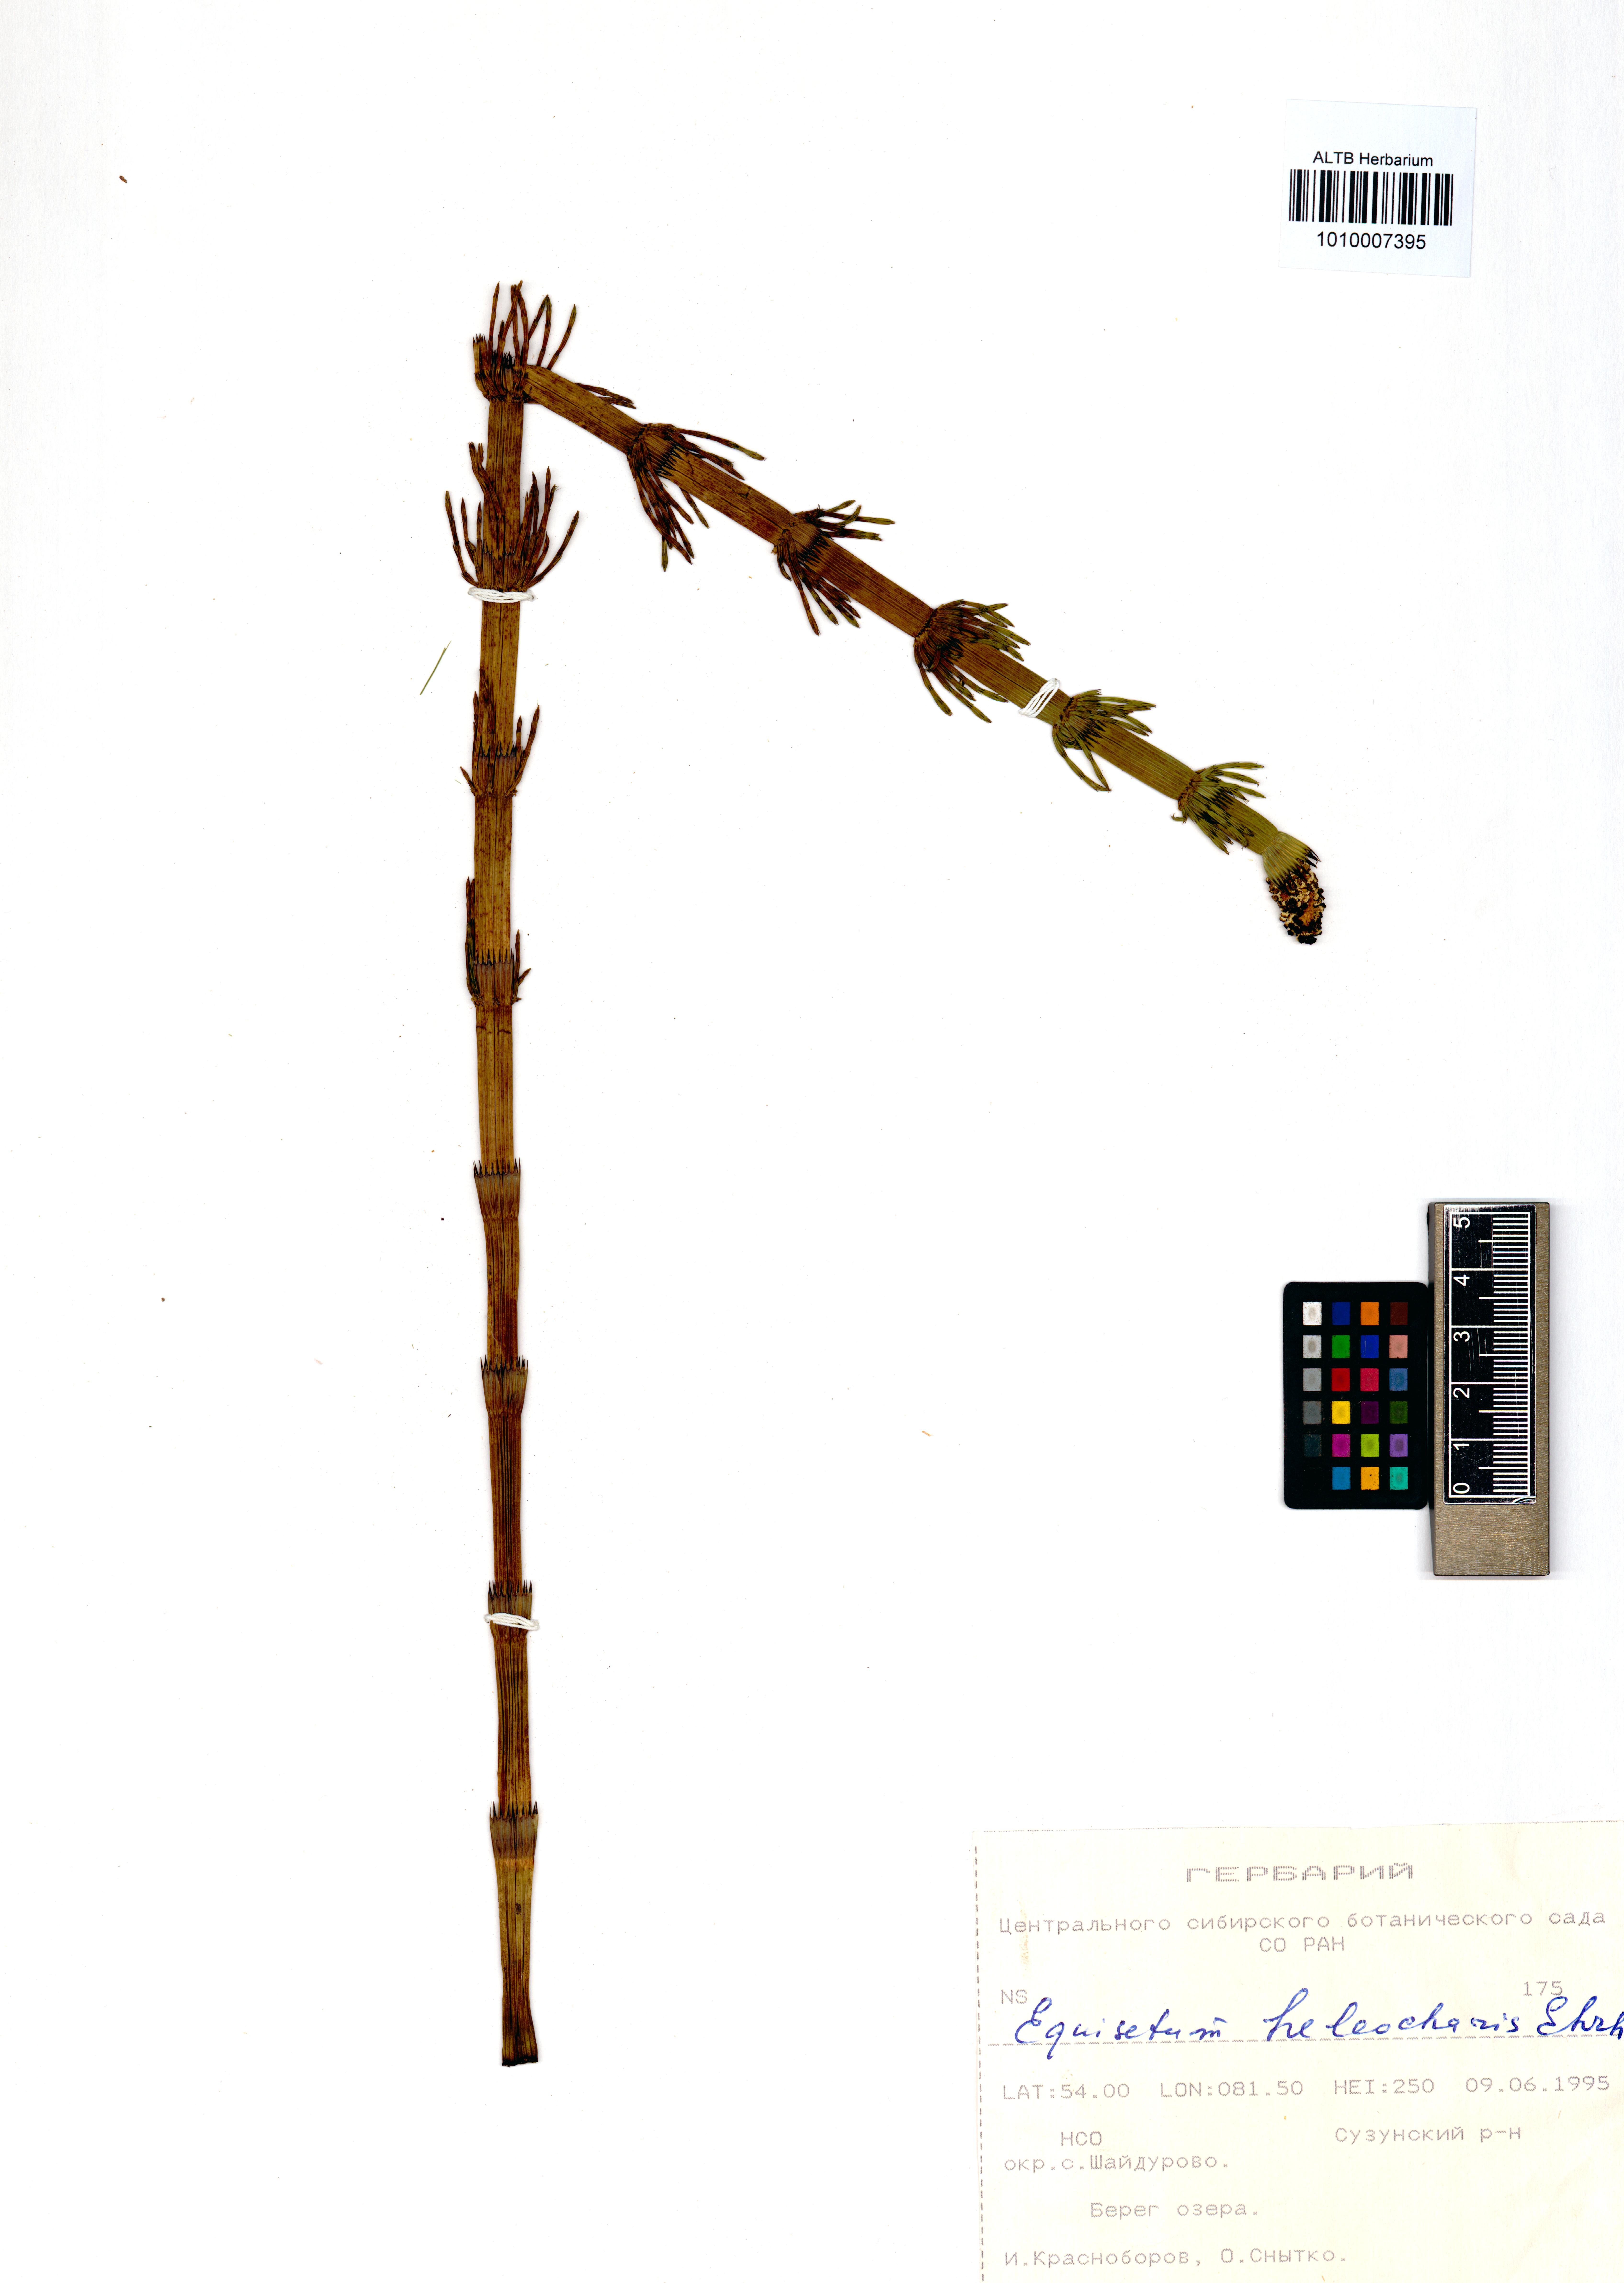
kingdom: Plantae
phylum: Tracheophyta
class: Polypodiopsida
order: Equisetales
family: Equisetaceae
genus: Equisetum
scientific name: Equisetum fluviatile
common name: Water horsetail
